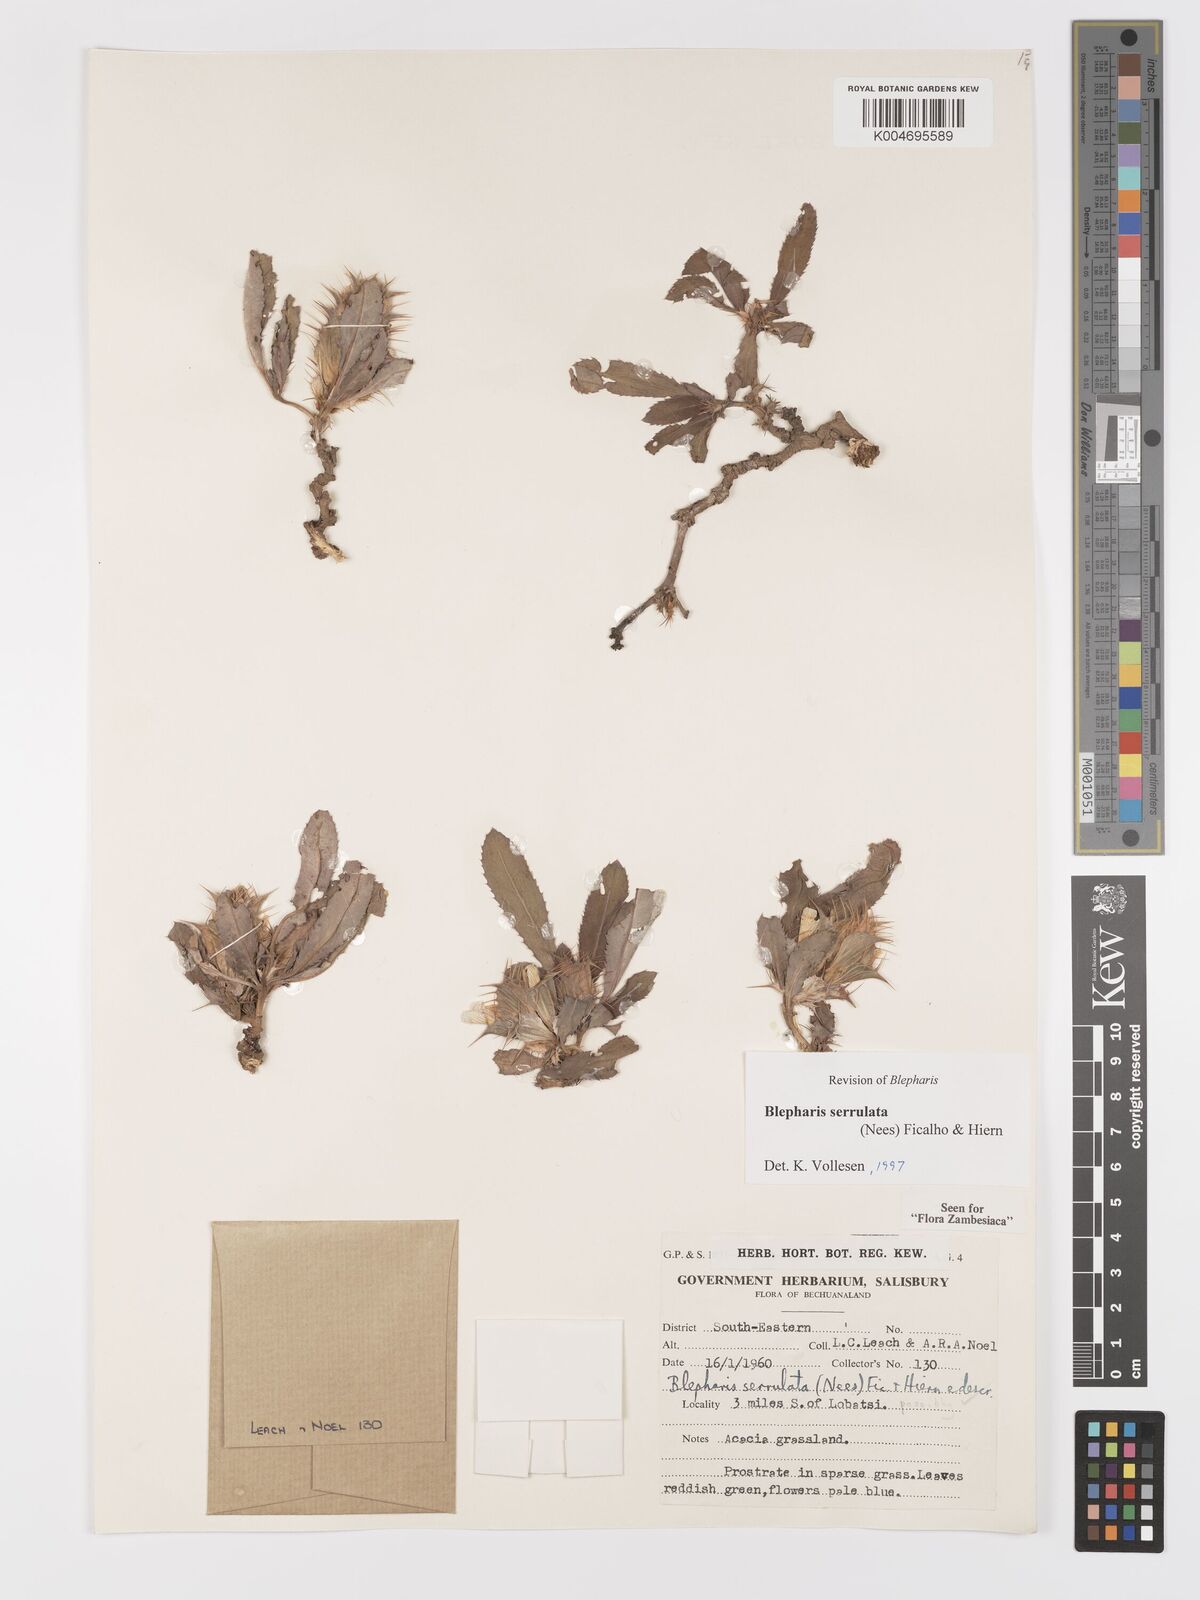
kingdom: Plantae
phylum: Tracheophyta
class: Magnoliopsida
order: Lamiales
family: Acanthaceae
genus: Blepharis
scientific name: Blepharis serrulata
